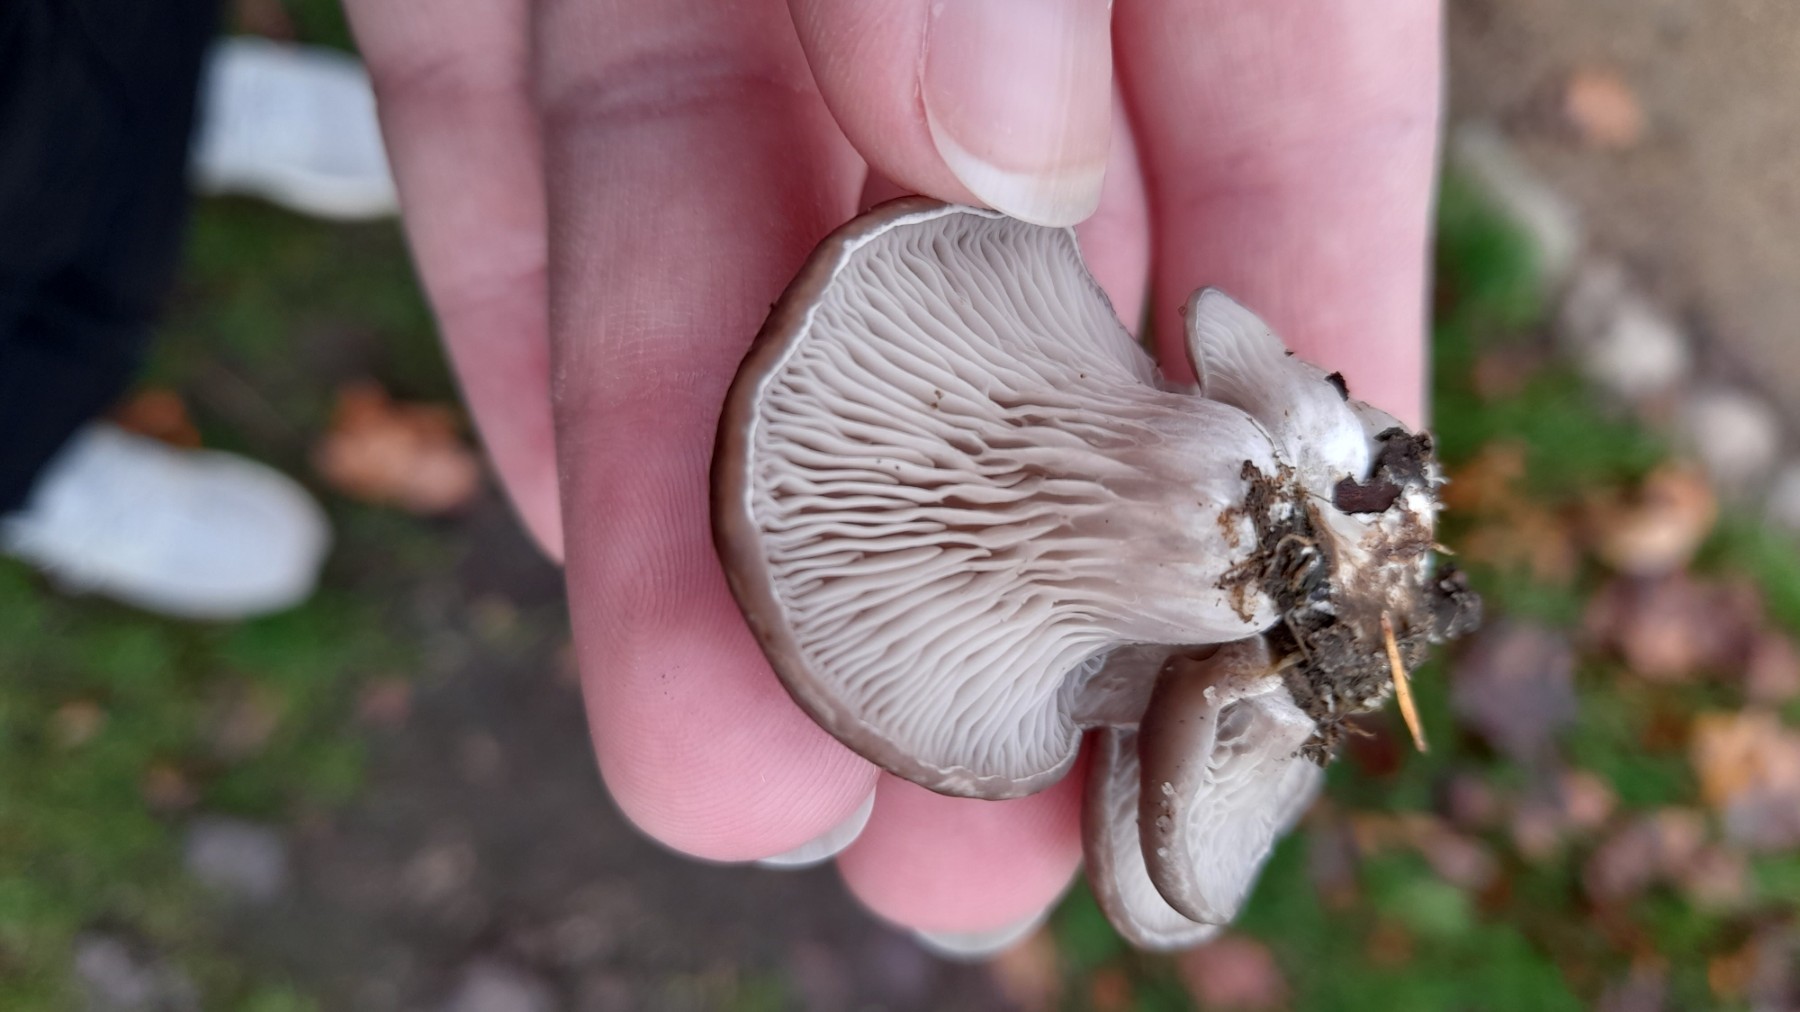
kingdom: Fungi
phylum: Basidiomycota
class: Agaricomycetes
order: Agaricales
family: Pleurotaceae
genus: Pleurotus
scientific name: Pleurotus ostreatus
